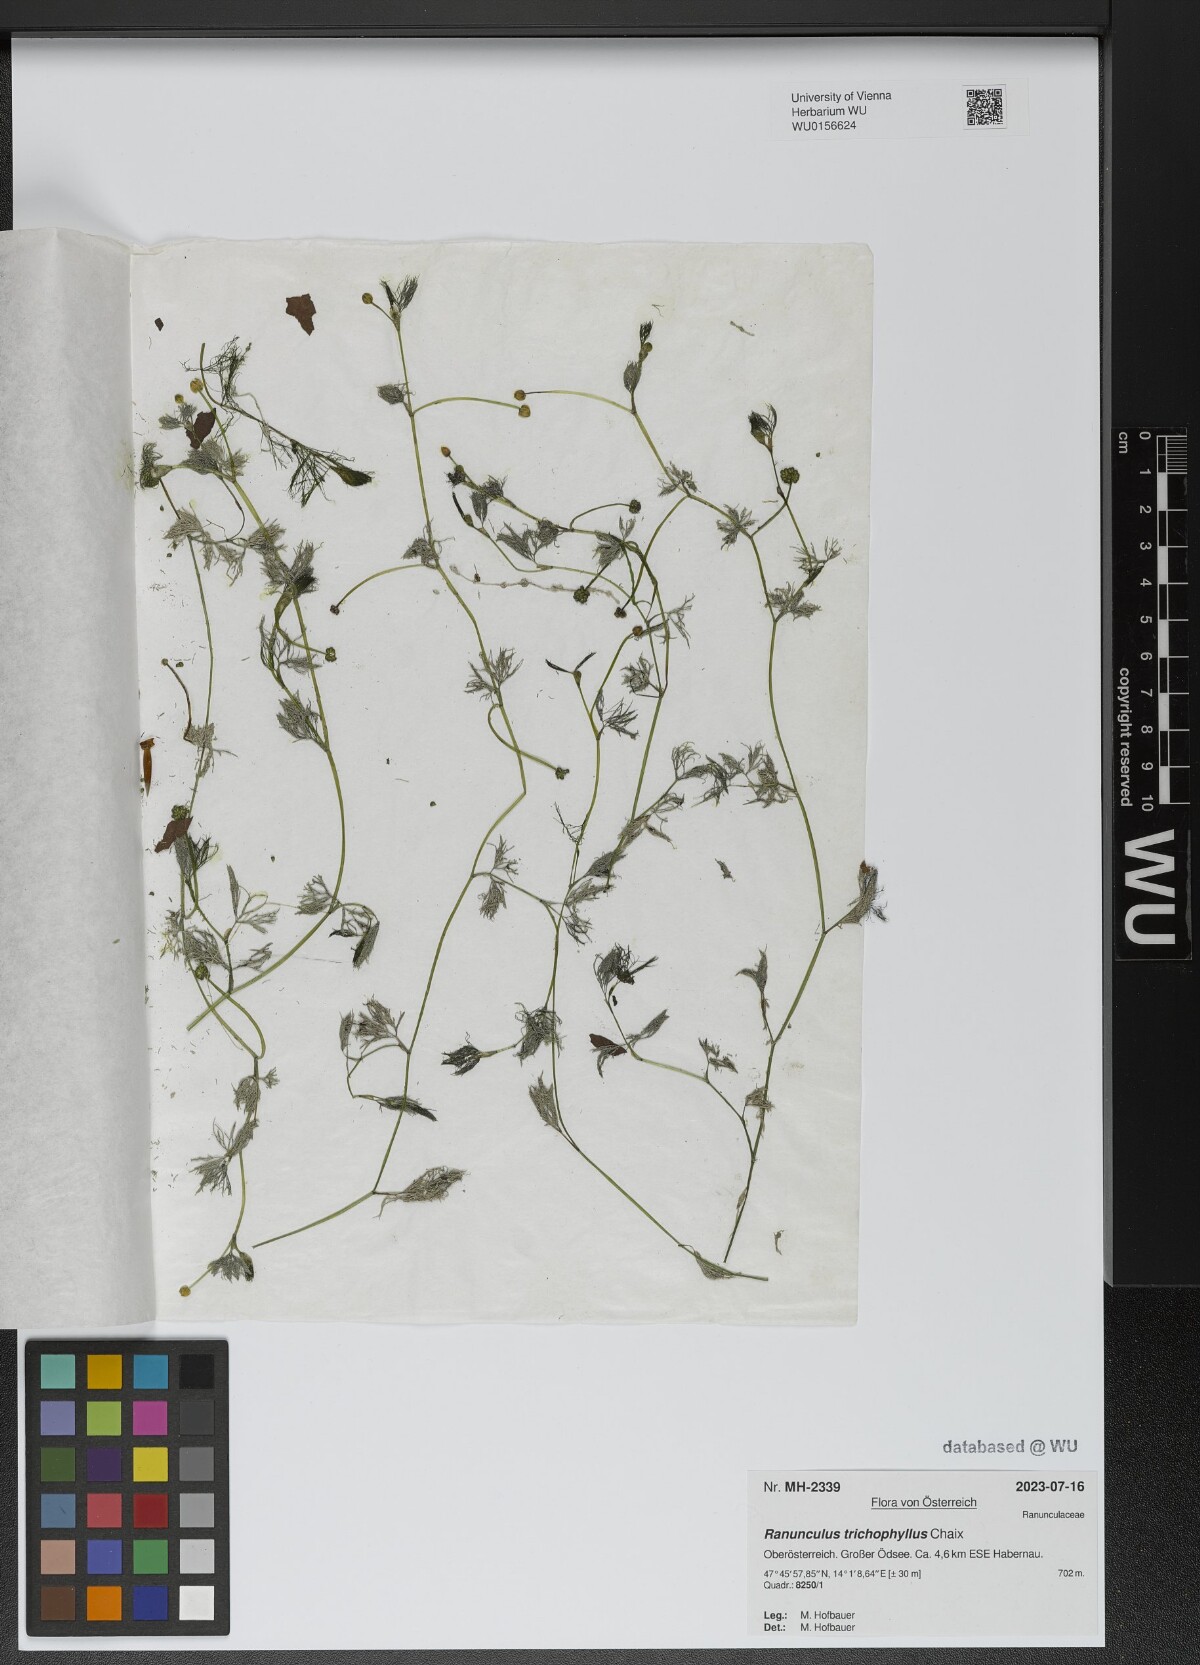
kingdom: Plantae
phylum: Tracheophyta
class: Magnoliopsida
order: Ranunculales
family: Ranunculaceae
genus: Ranunculus
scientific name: Ranunculus trichophyllus
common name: Thread-leaved water-crowfoot
